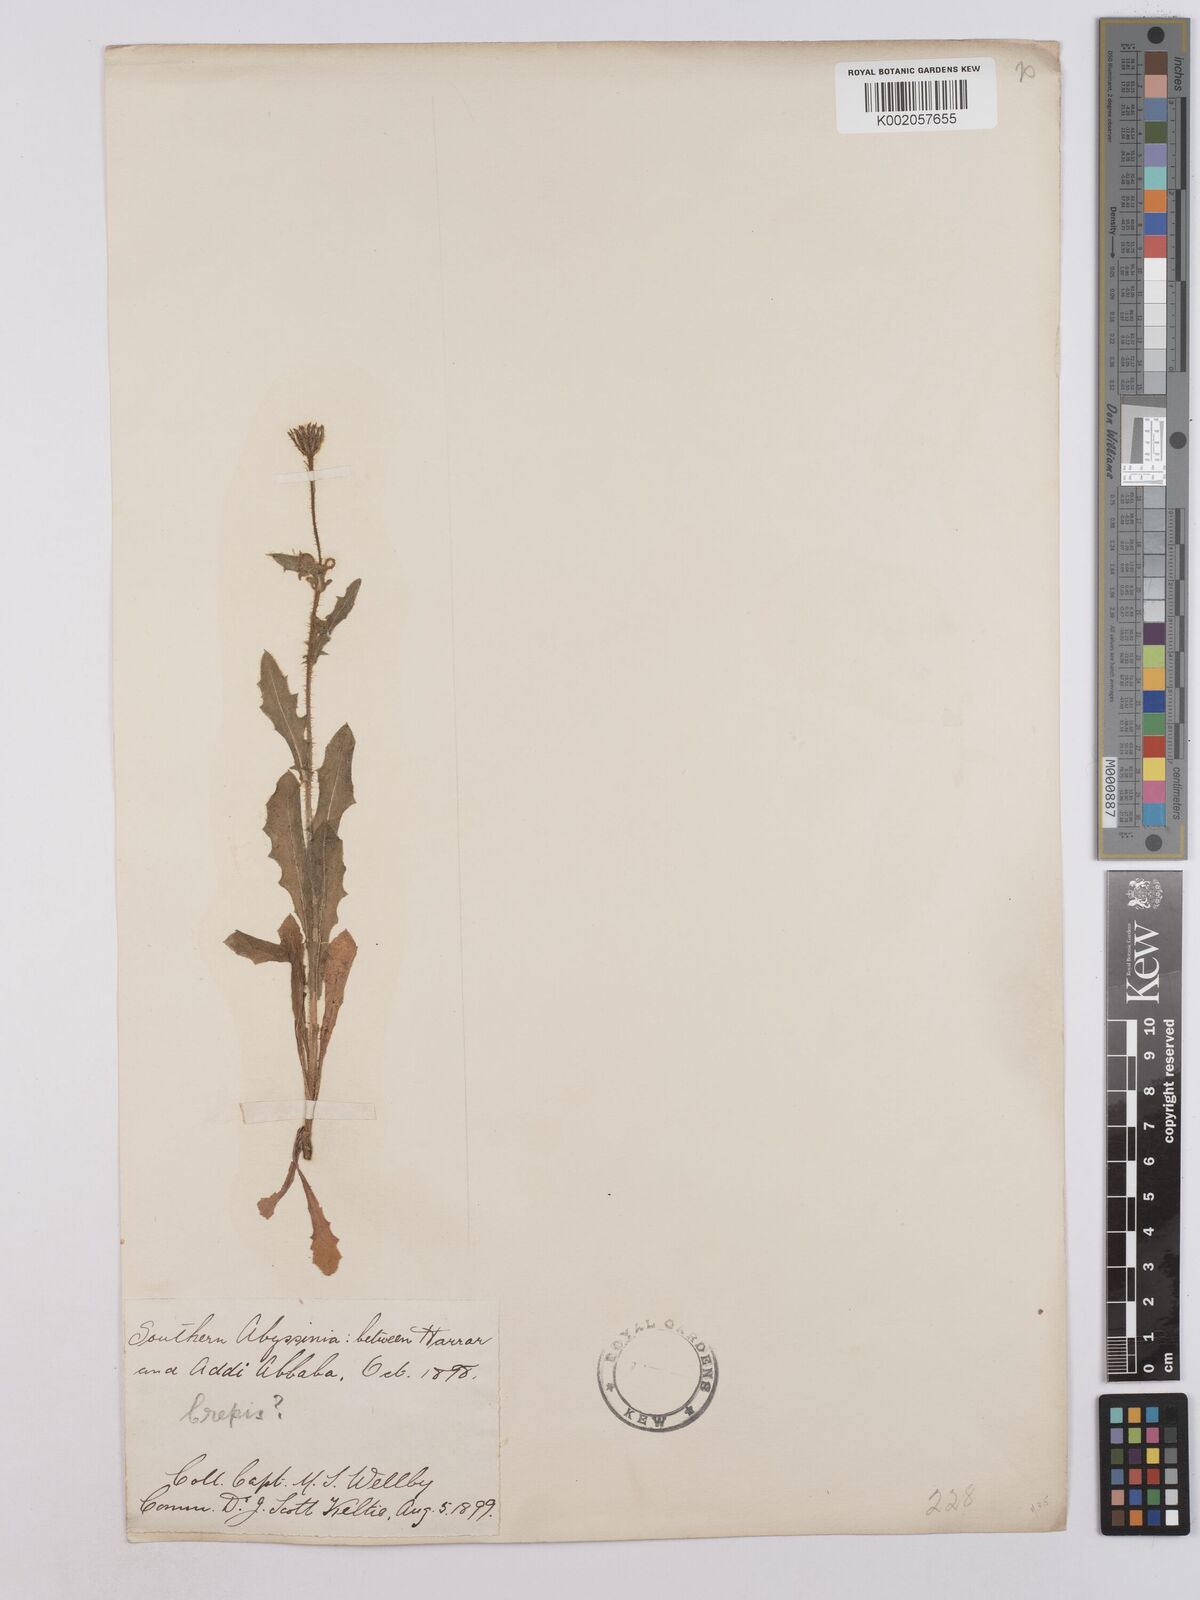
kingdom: Plantae
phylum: Tracheophyta
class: Magnoliopsida
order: Asterales
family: Asteraceae
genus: Crepis
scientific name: Crepis foetida
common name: Stinking hawk's-beard
